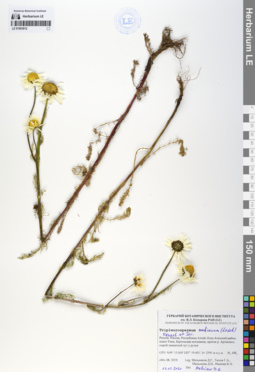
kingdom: Plantae
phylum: Tracheophyta
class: Magnoliopsida
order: Asterales
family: Asteraceae
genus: Tripleurospermum
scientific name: Tripleurospermum ambiguum
